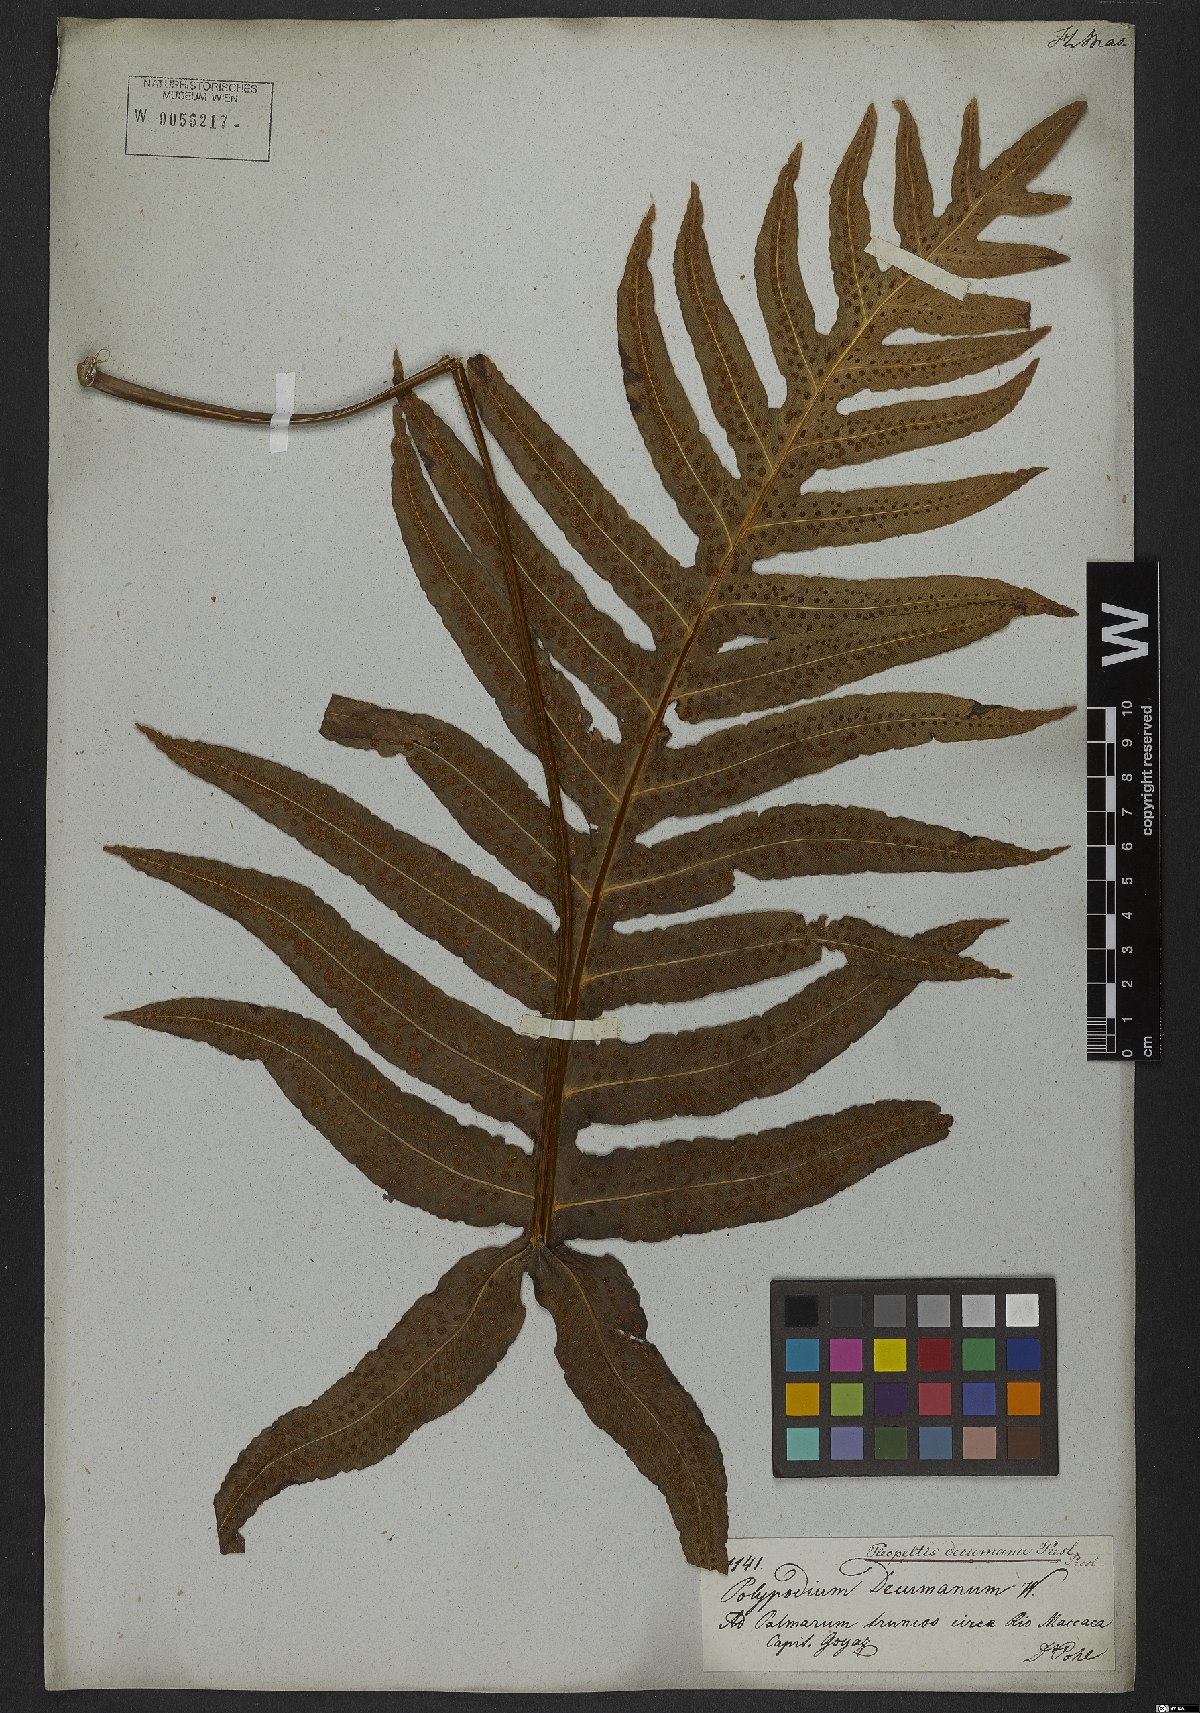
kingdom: Plantae
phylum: Tracheophyta
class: Polypodiopsida
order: Polypodiales
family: Polypodiaceae
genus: Phlebodium
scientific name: Phlebodium decumanum
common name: Golden polypod
